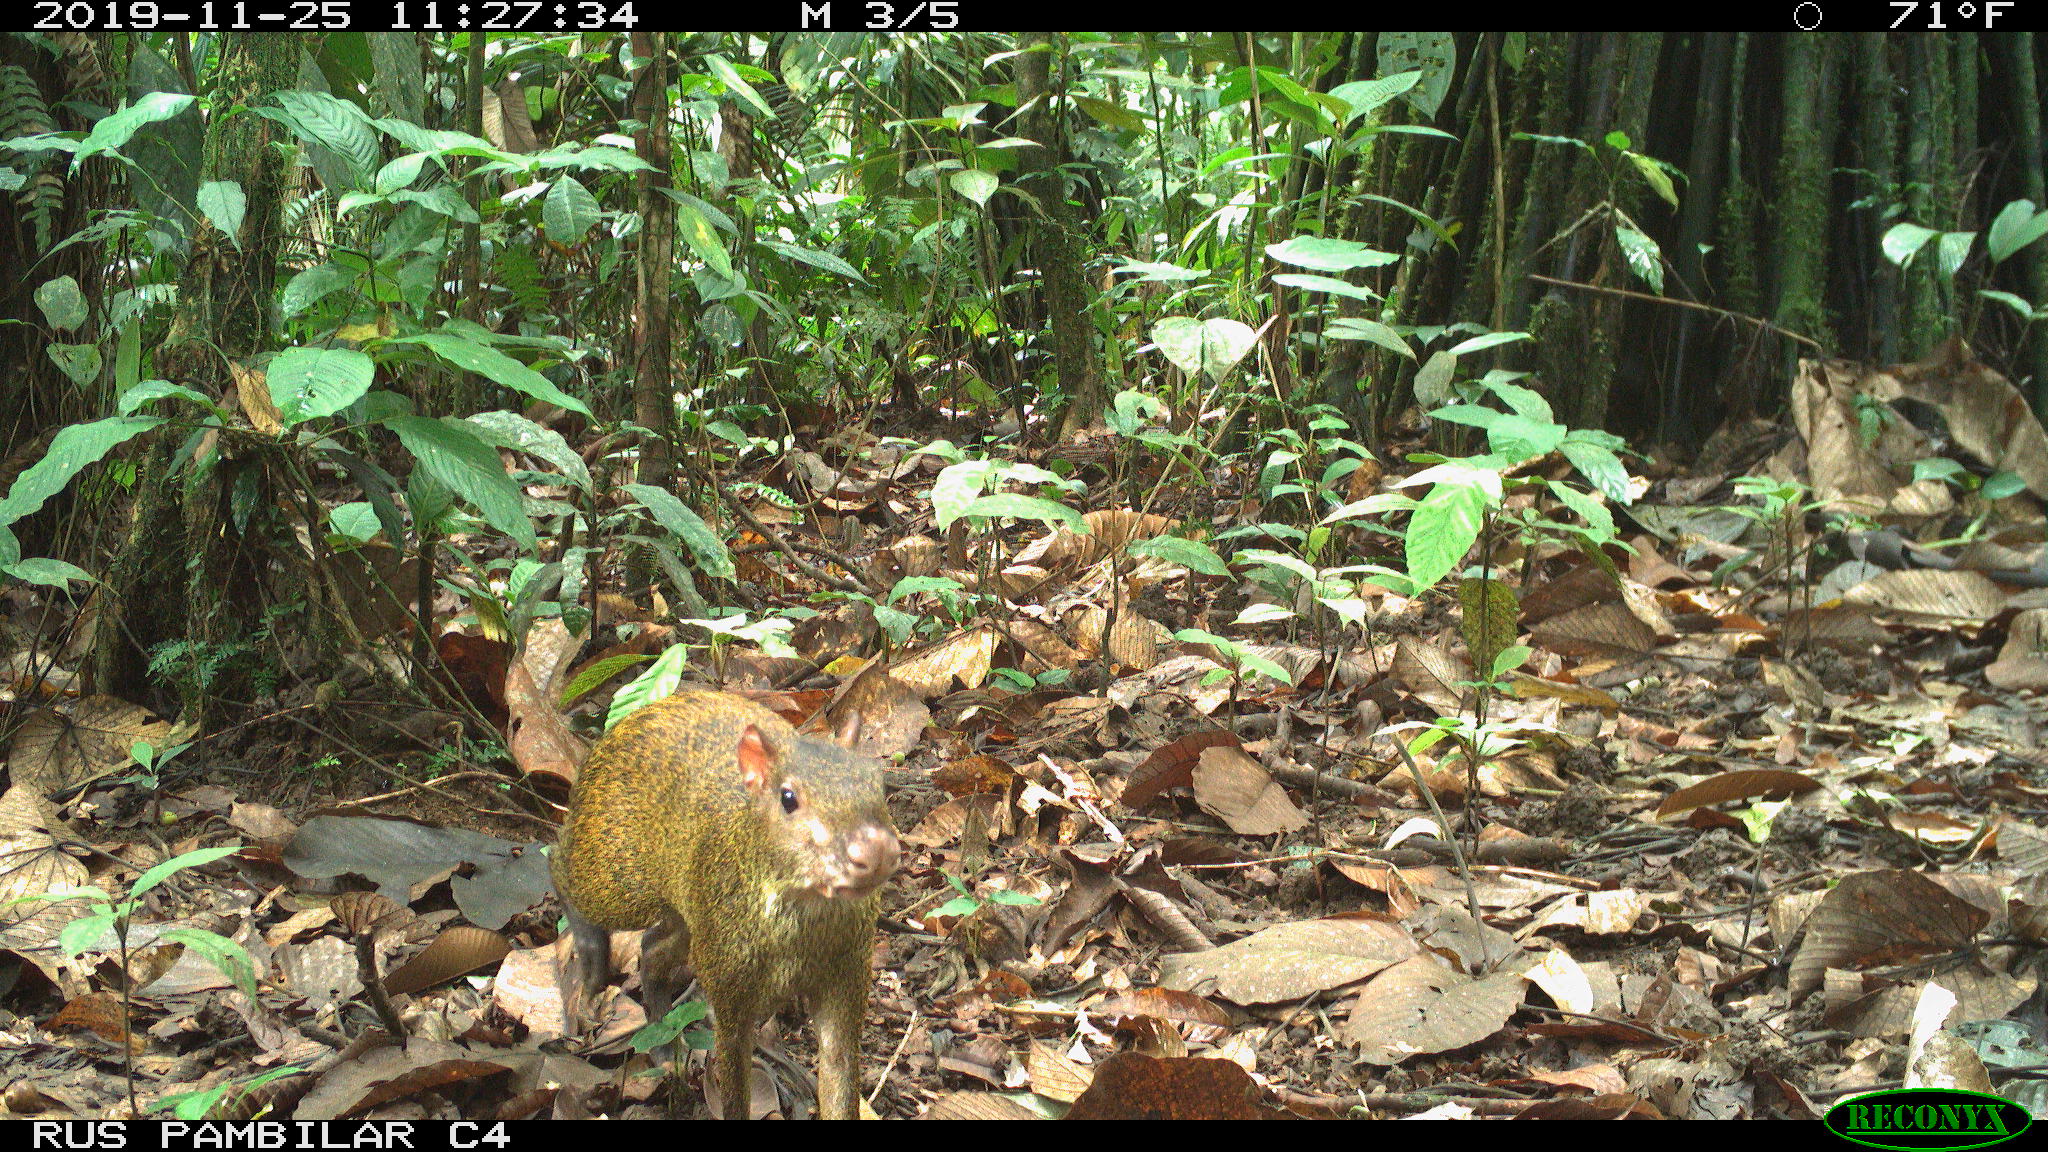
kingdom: Animalia
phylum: Chordata
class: Mammalia
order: Rodentia
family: Dasyproctidae
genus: Dasyprocta
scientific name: Dasyprocta punctata
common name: Central american agouti
